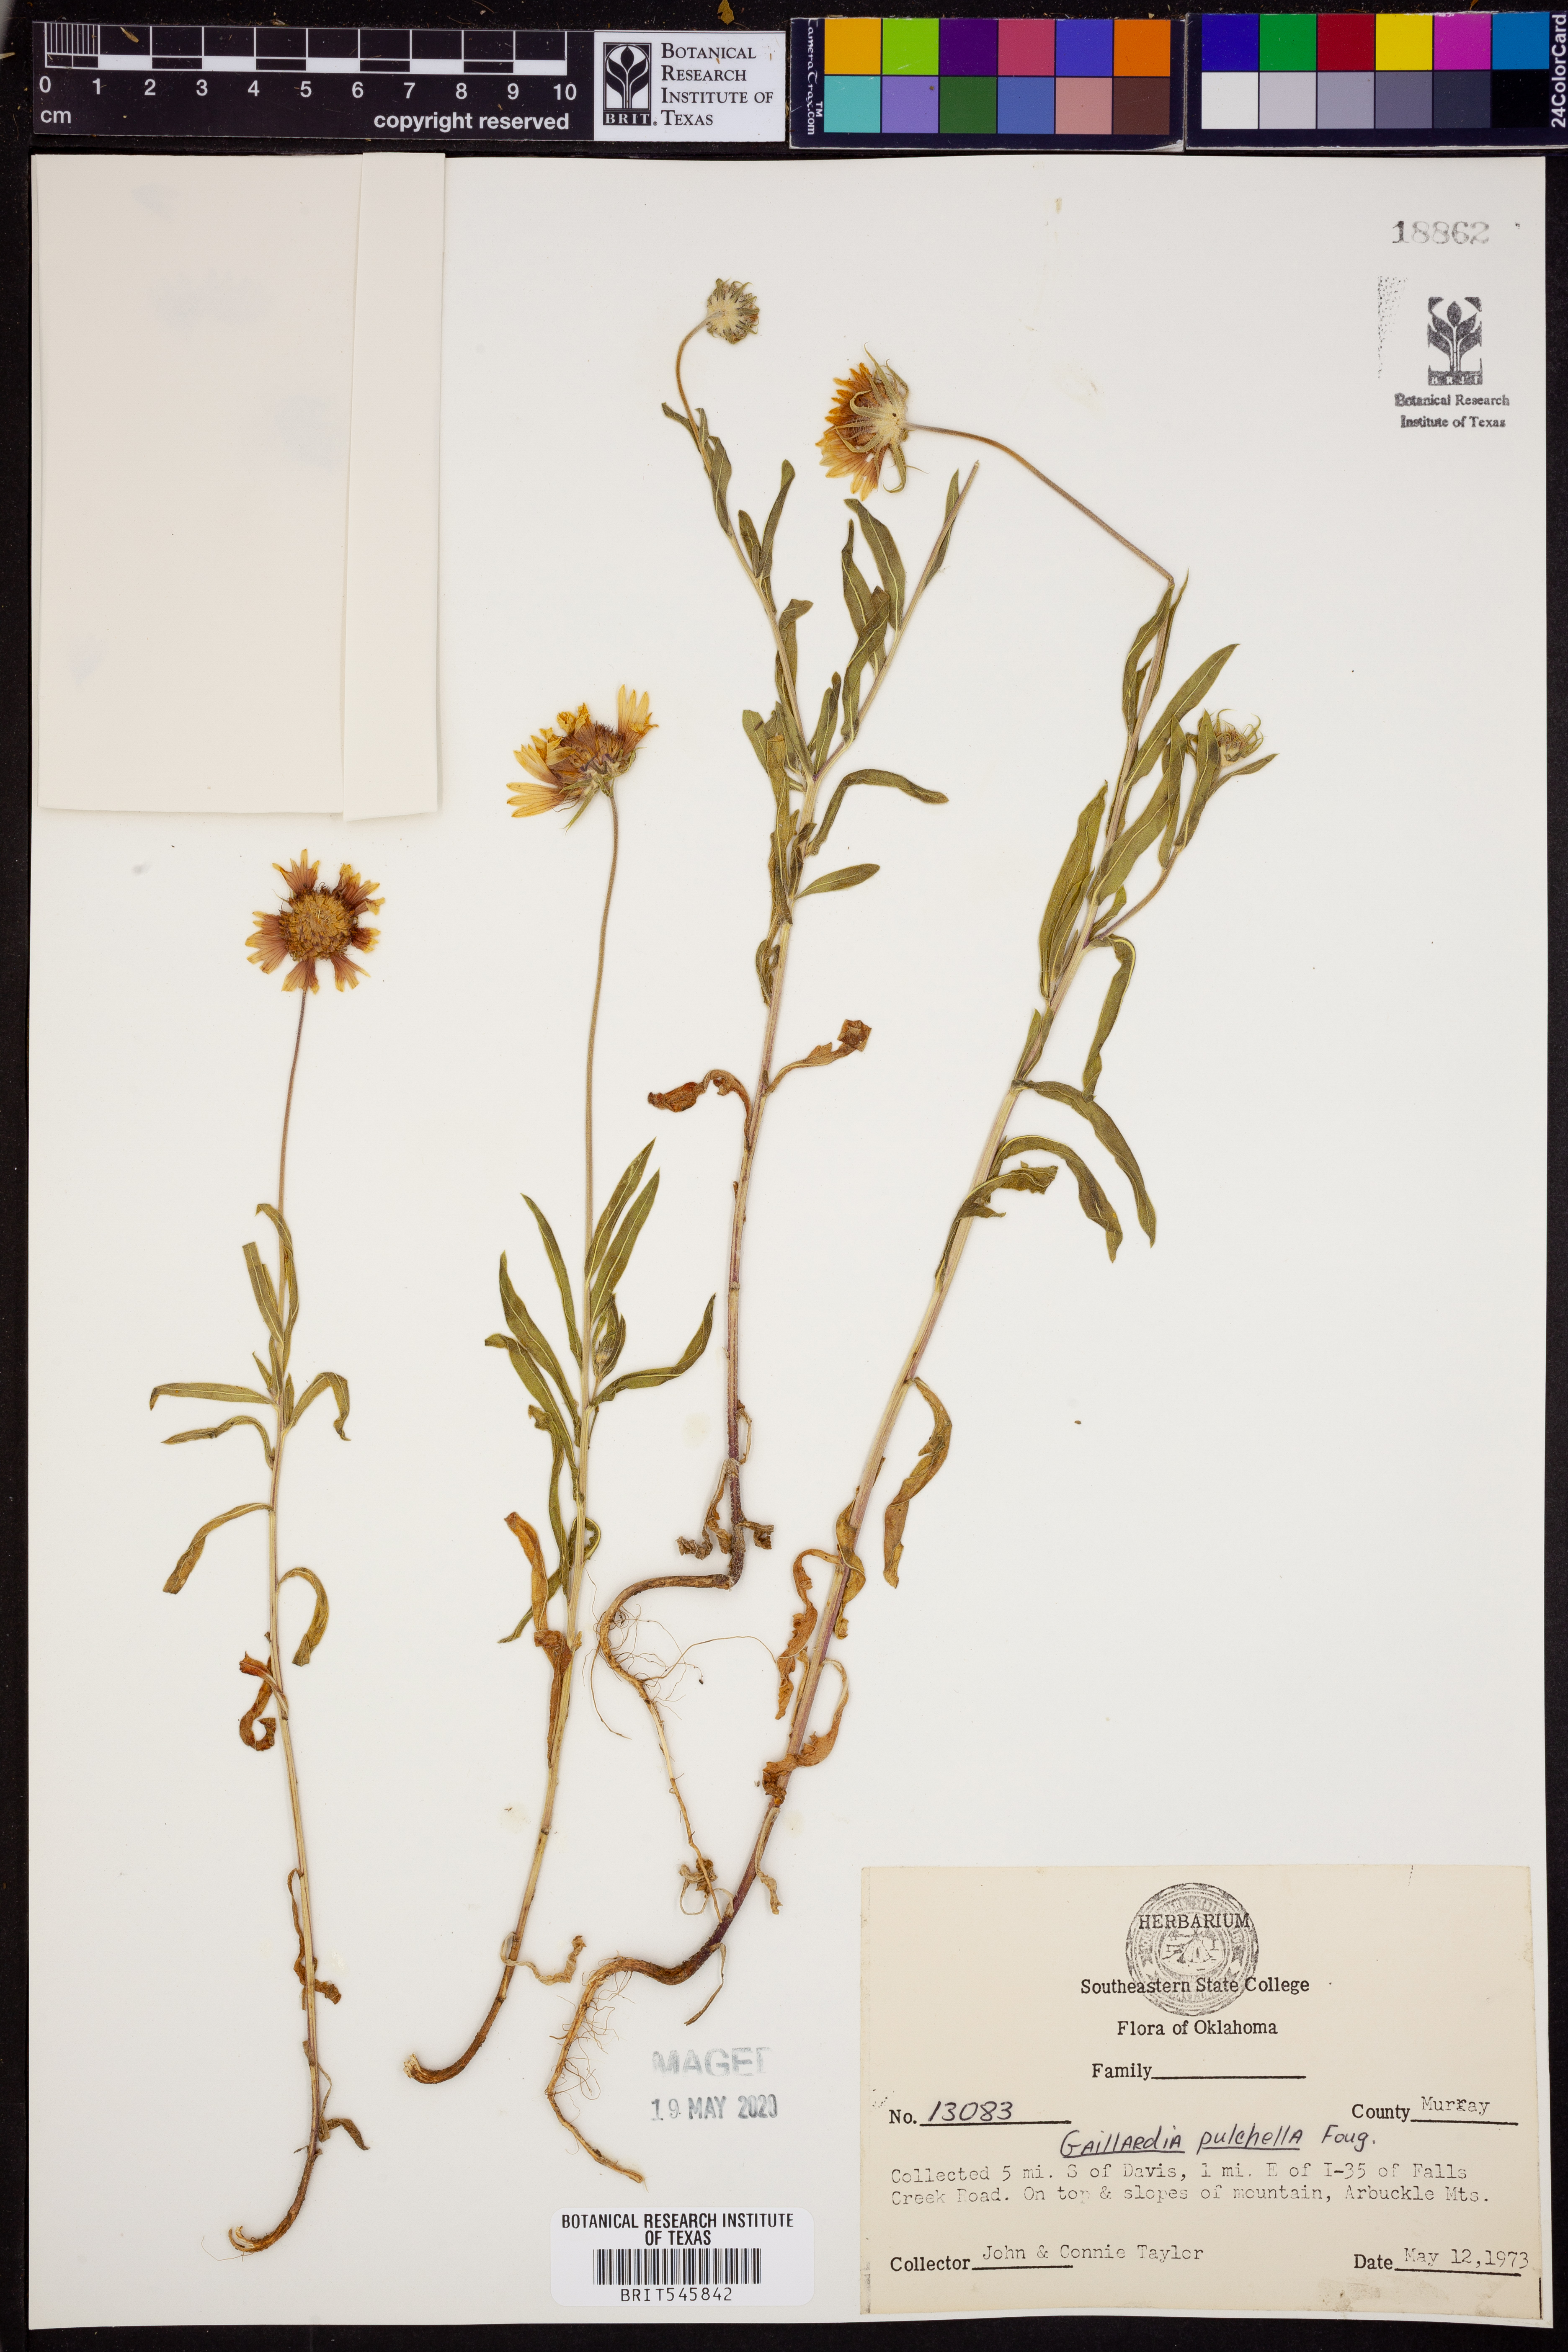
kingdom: Plantae
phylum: Tracheophyta
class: Magnoliopsida
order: Asterales
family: Asteraceae
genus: Gaillardia
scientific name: Gaillardia pulchella
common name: Firewheel
